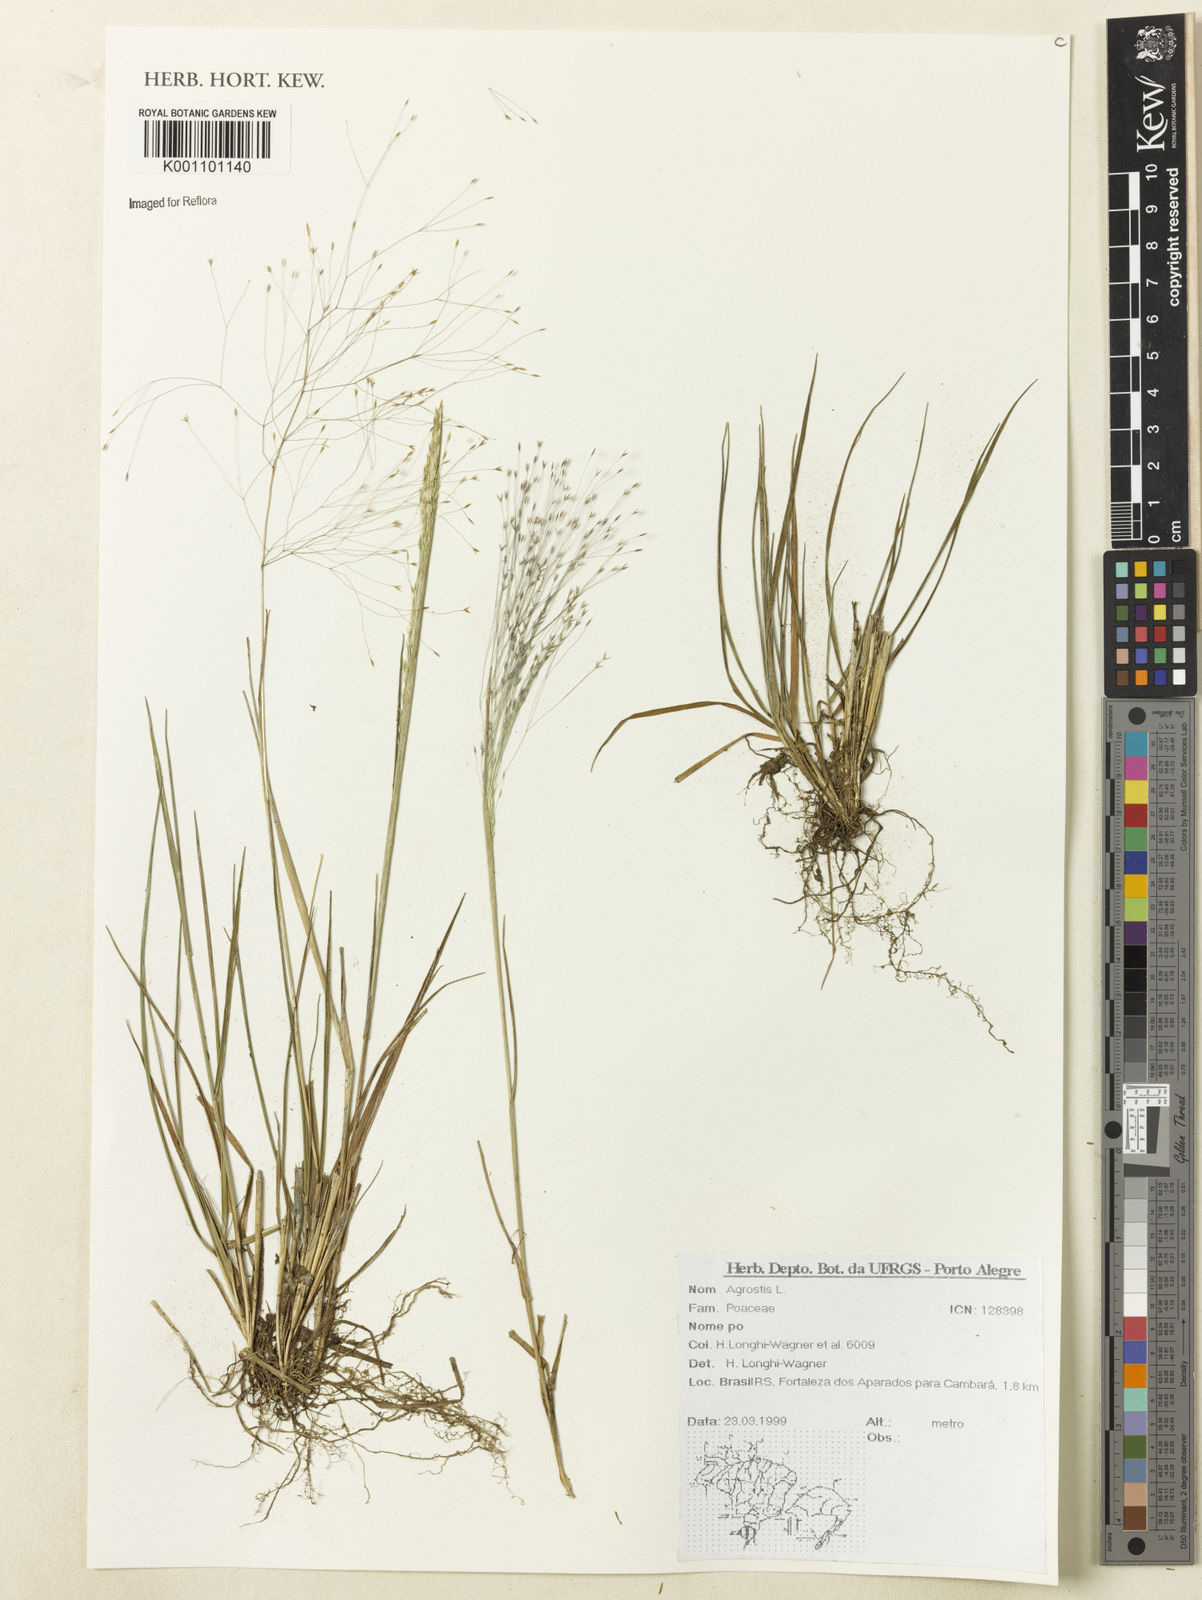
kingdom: Plantae
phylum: Tracheophyta
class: Liliopsida
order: Poales
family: Poaceae
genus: Agrostis
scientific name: Agrostis
